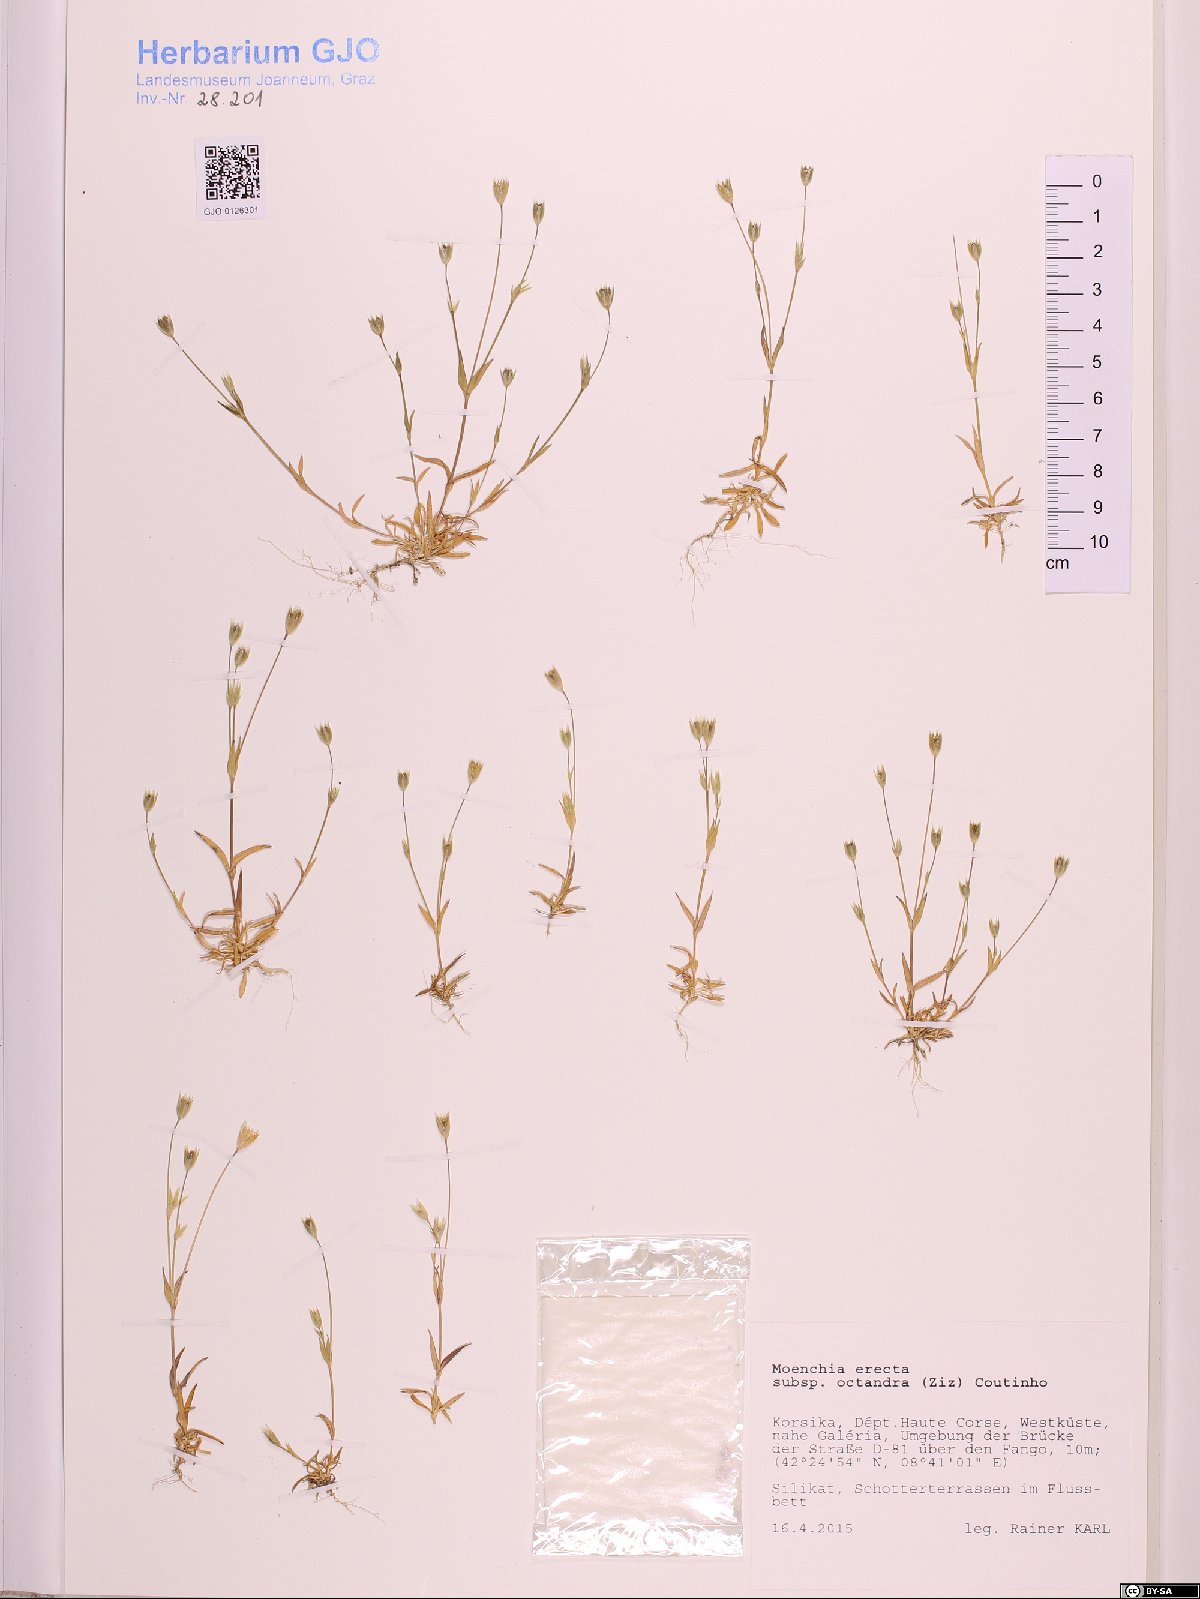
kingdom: Plantae
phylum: Tracheophyta
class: Magnoliopsida
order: Caryophyllales
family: Caryophyllaceae
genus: Moenchia
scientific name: Moenchia erecta
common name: Upright chickweed
